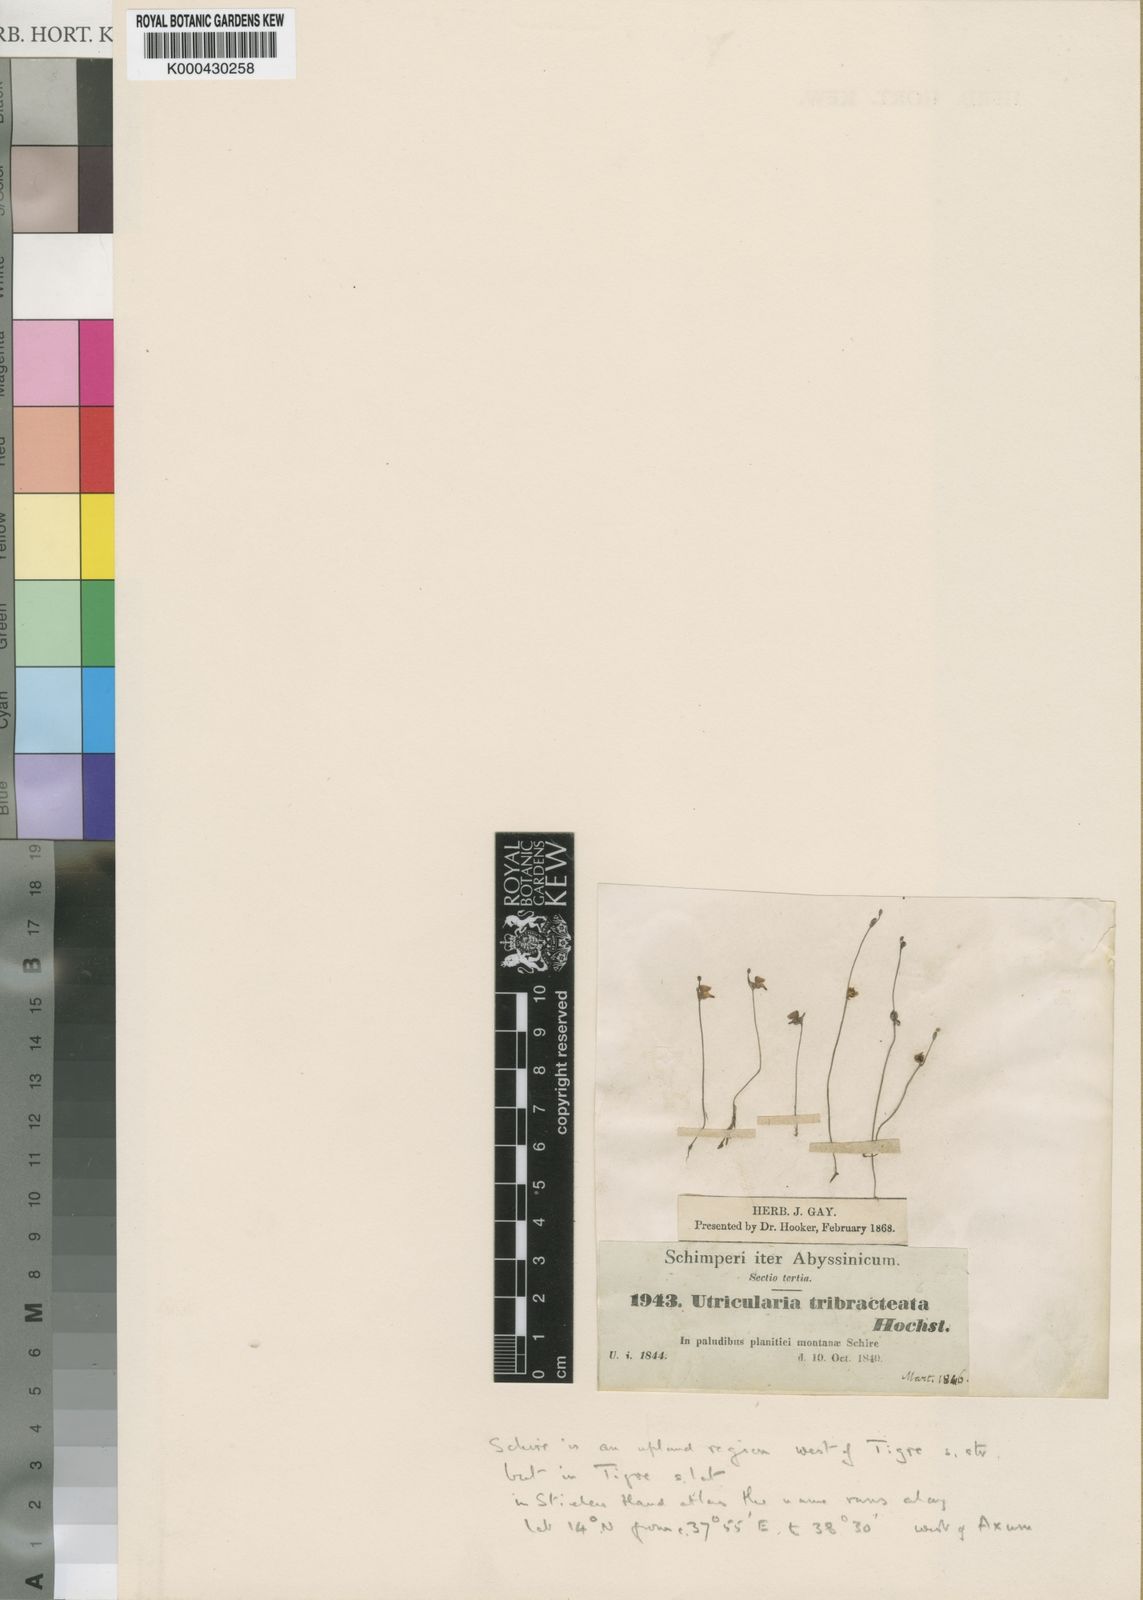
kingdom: Plantae
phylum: Tracheophyta
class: Magnoliopsida
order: Lamiales
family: Lentibulariaceae
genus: Utricularia
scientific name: Utricularia arenaria
